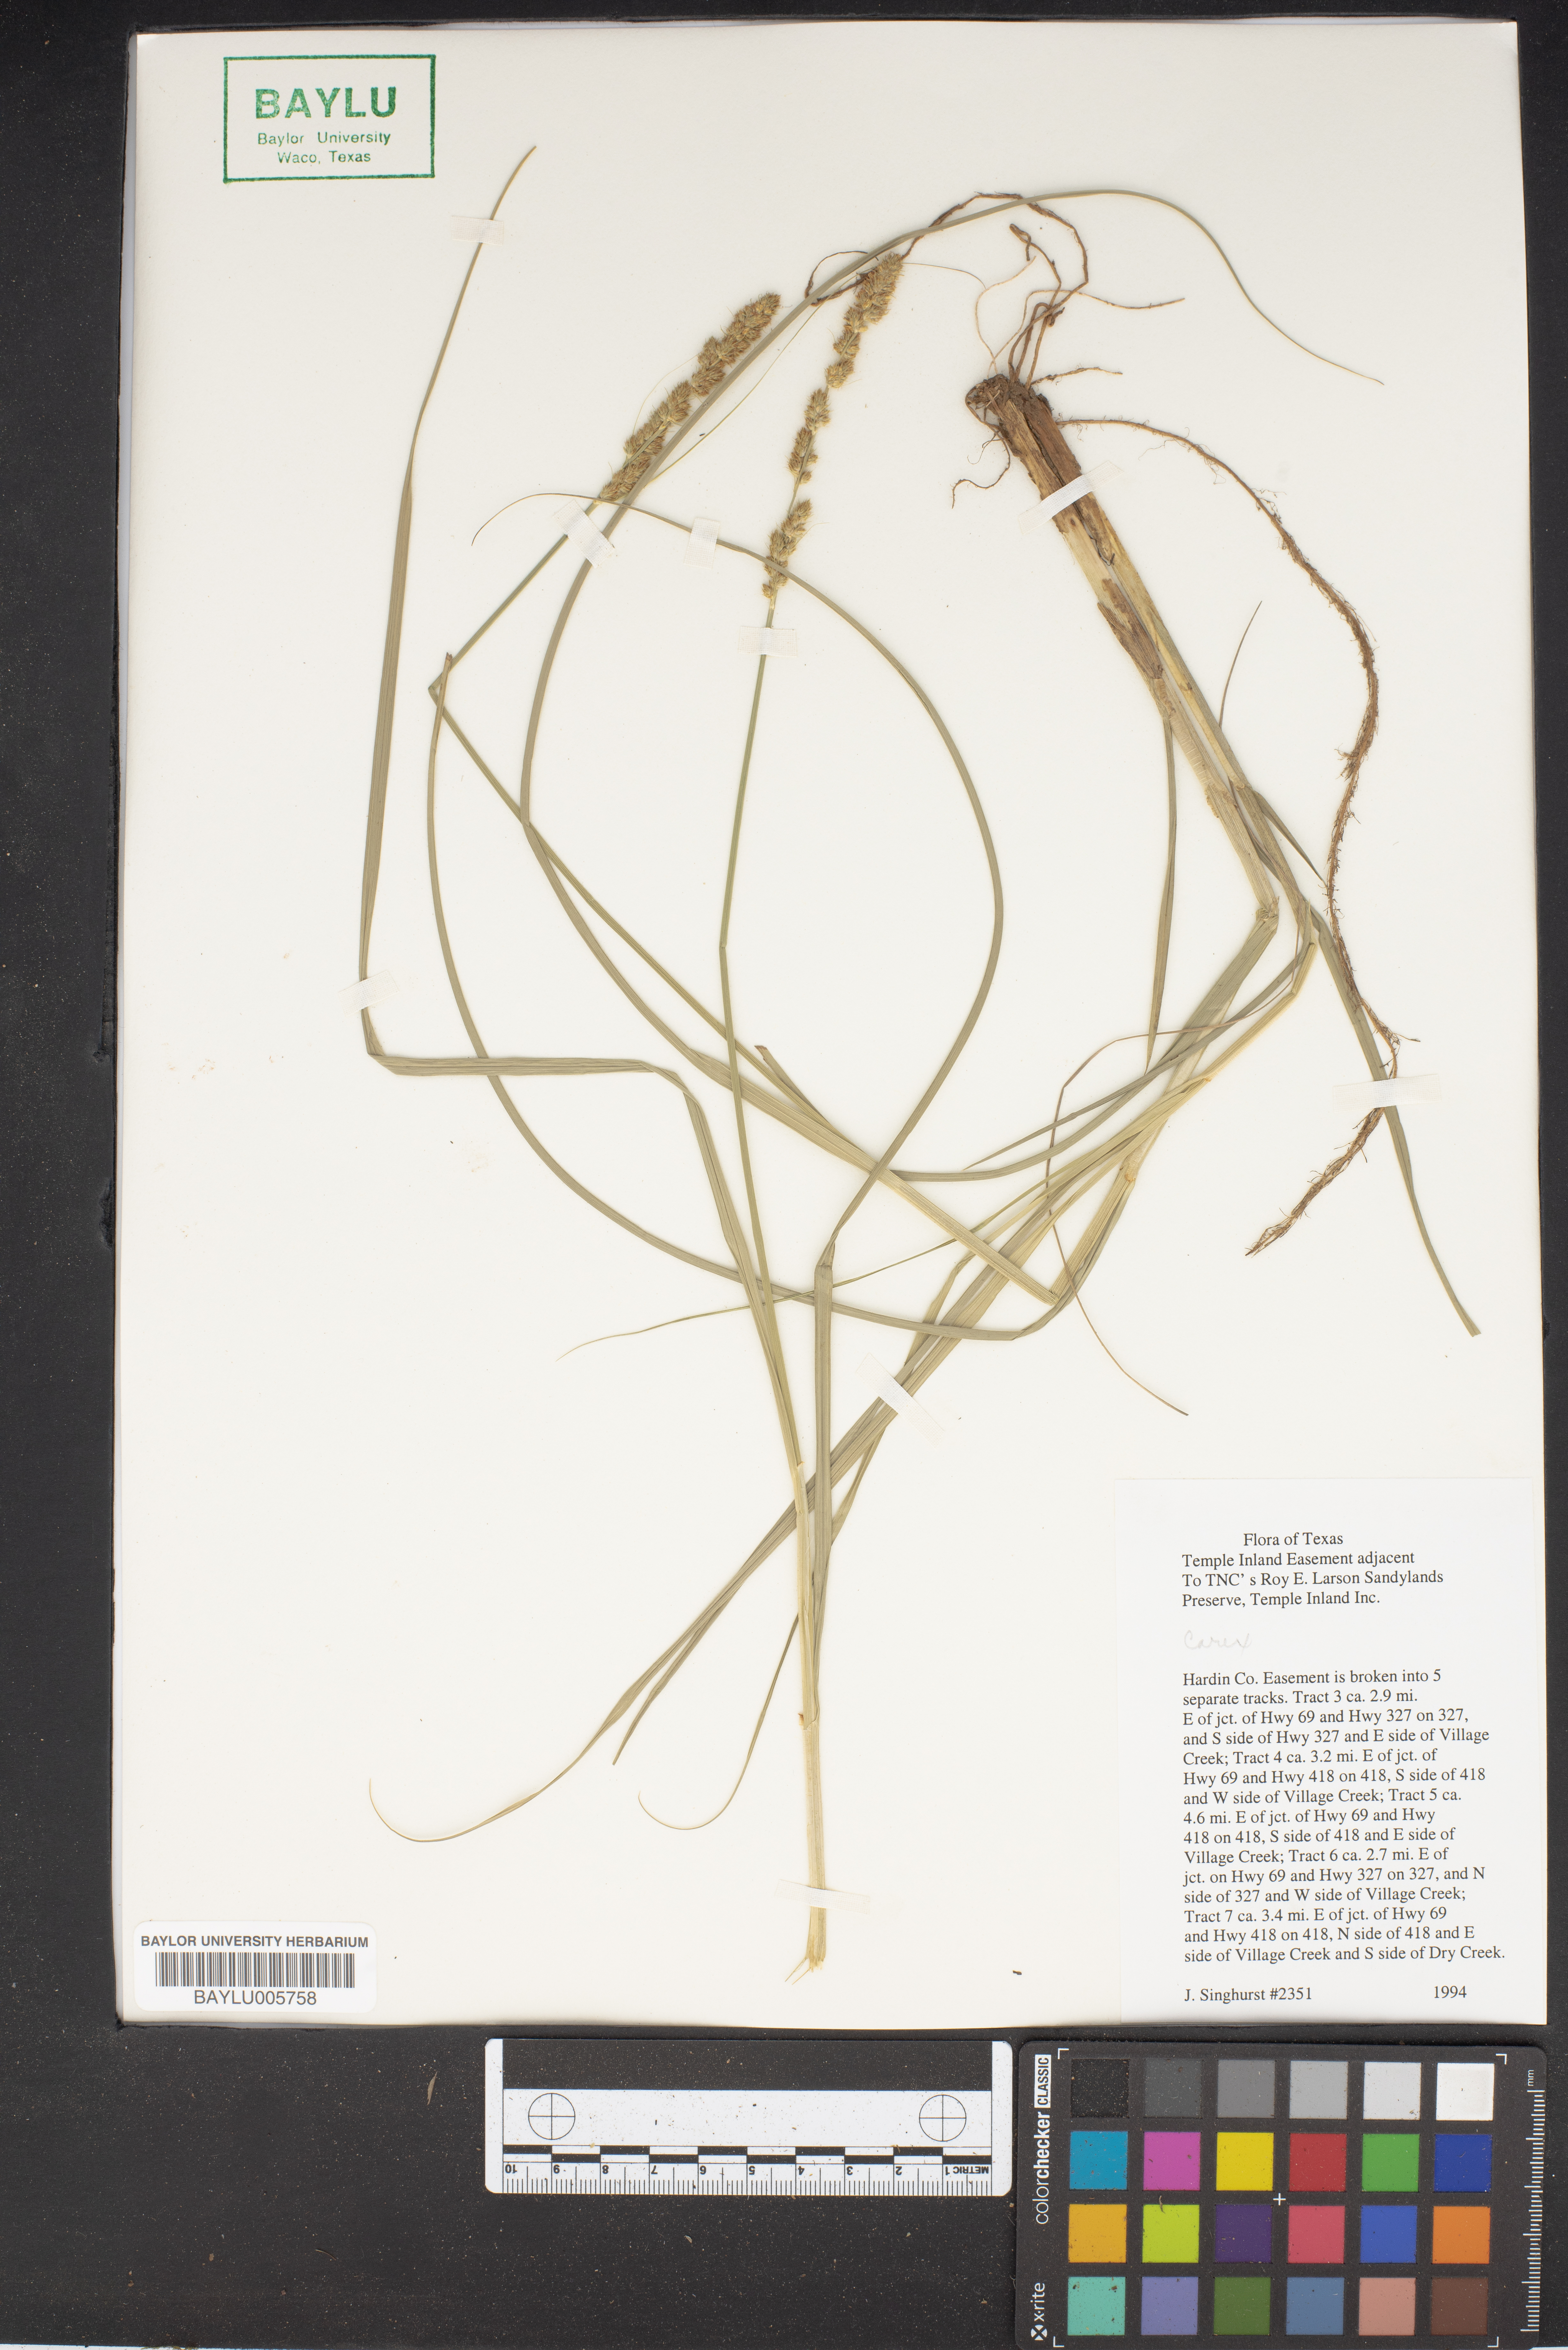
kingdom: Plantae
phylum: Tracheophyta
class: Liliopsida
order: Poales
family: Cyperaceae
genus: Carex
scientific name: Carex
